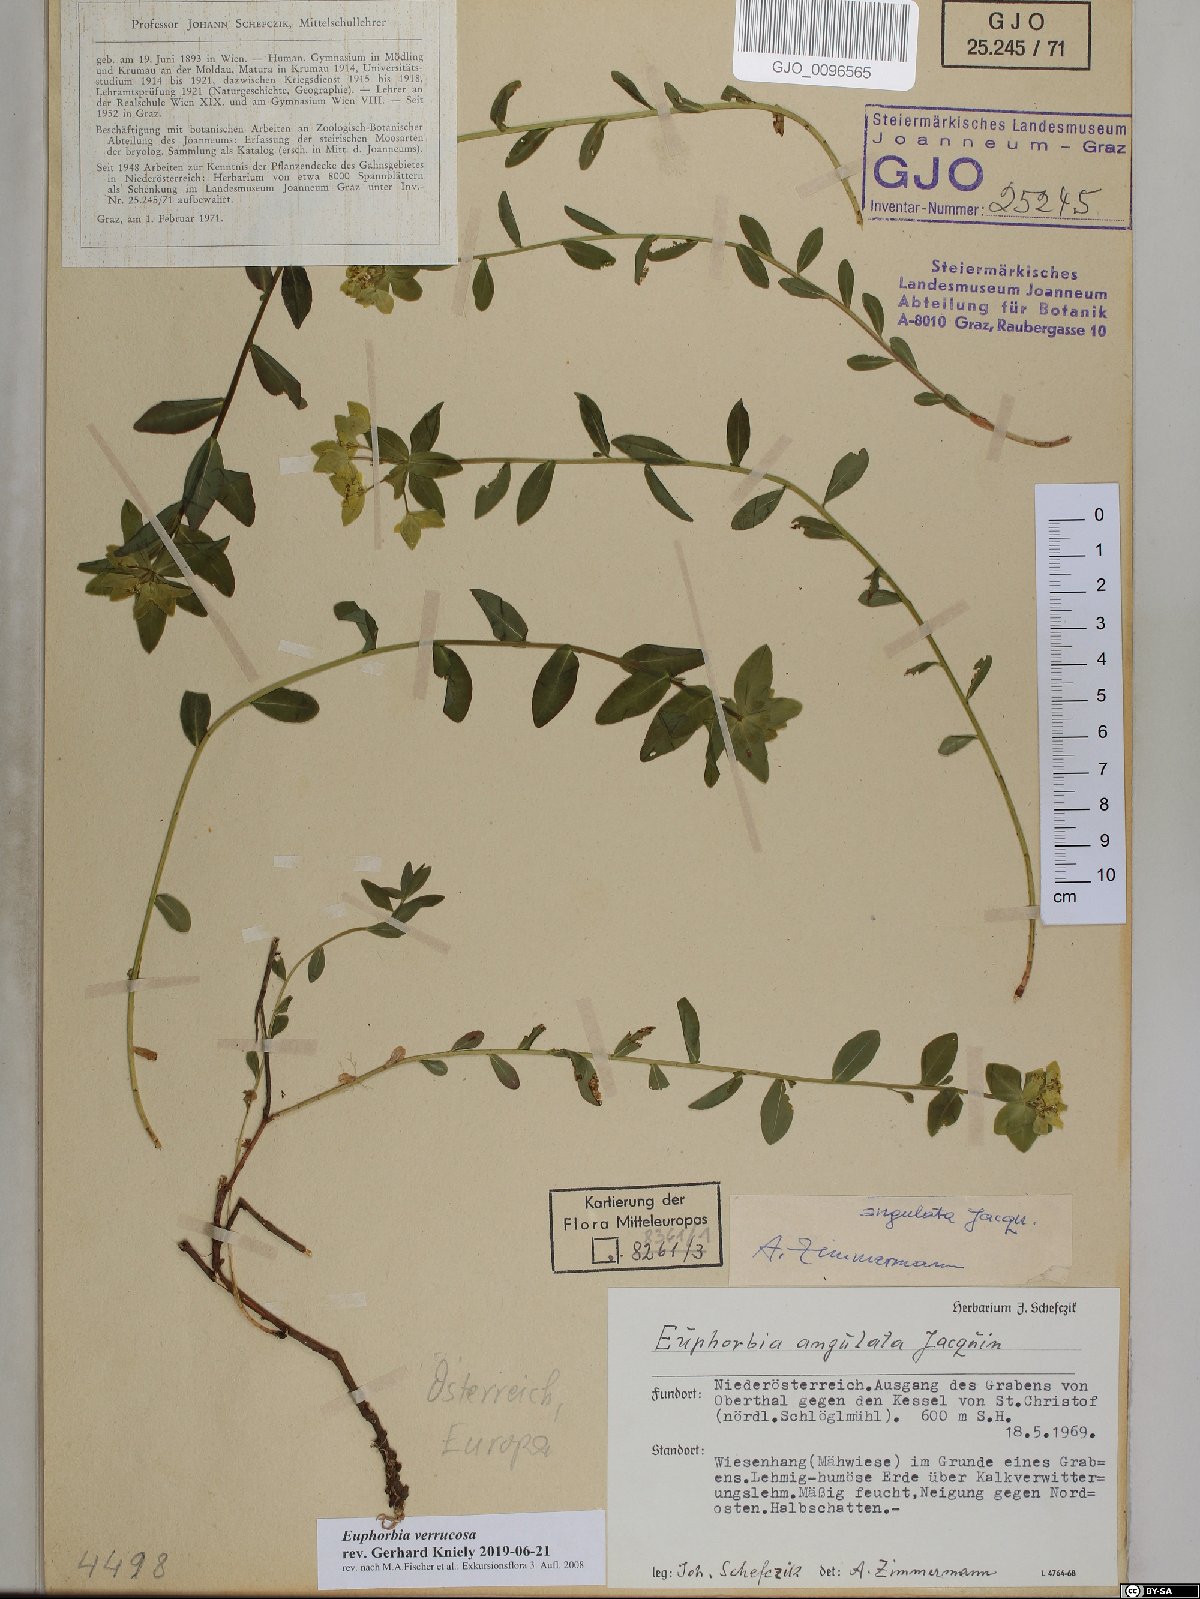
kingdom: Plantae
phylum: Tracheophyta
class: Magnoliopsida
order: Malpighiales
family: Euphorbiaceae
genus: Euphorbia
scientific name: Euphorbia verrucosa
